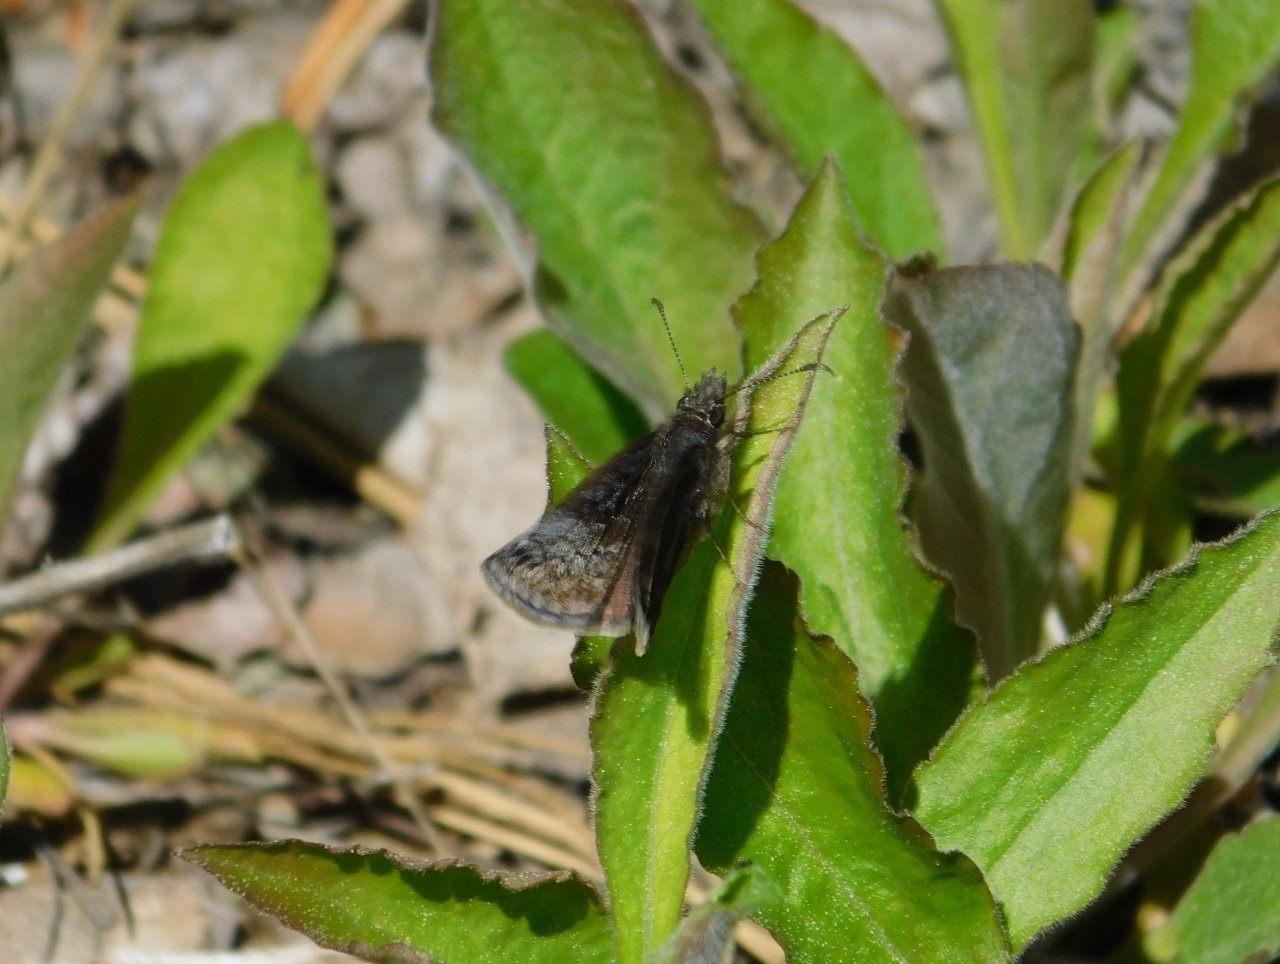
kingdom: Animalia
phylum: Arthropoda
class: Insecta
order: Lepidoptera
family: Hesperiidae
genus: Erynnis
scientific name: Erynnis icelus
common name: Dreamy Duskywing
